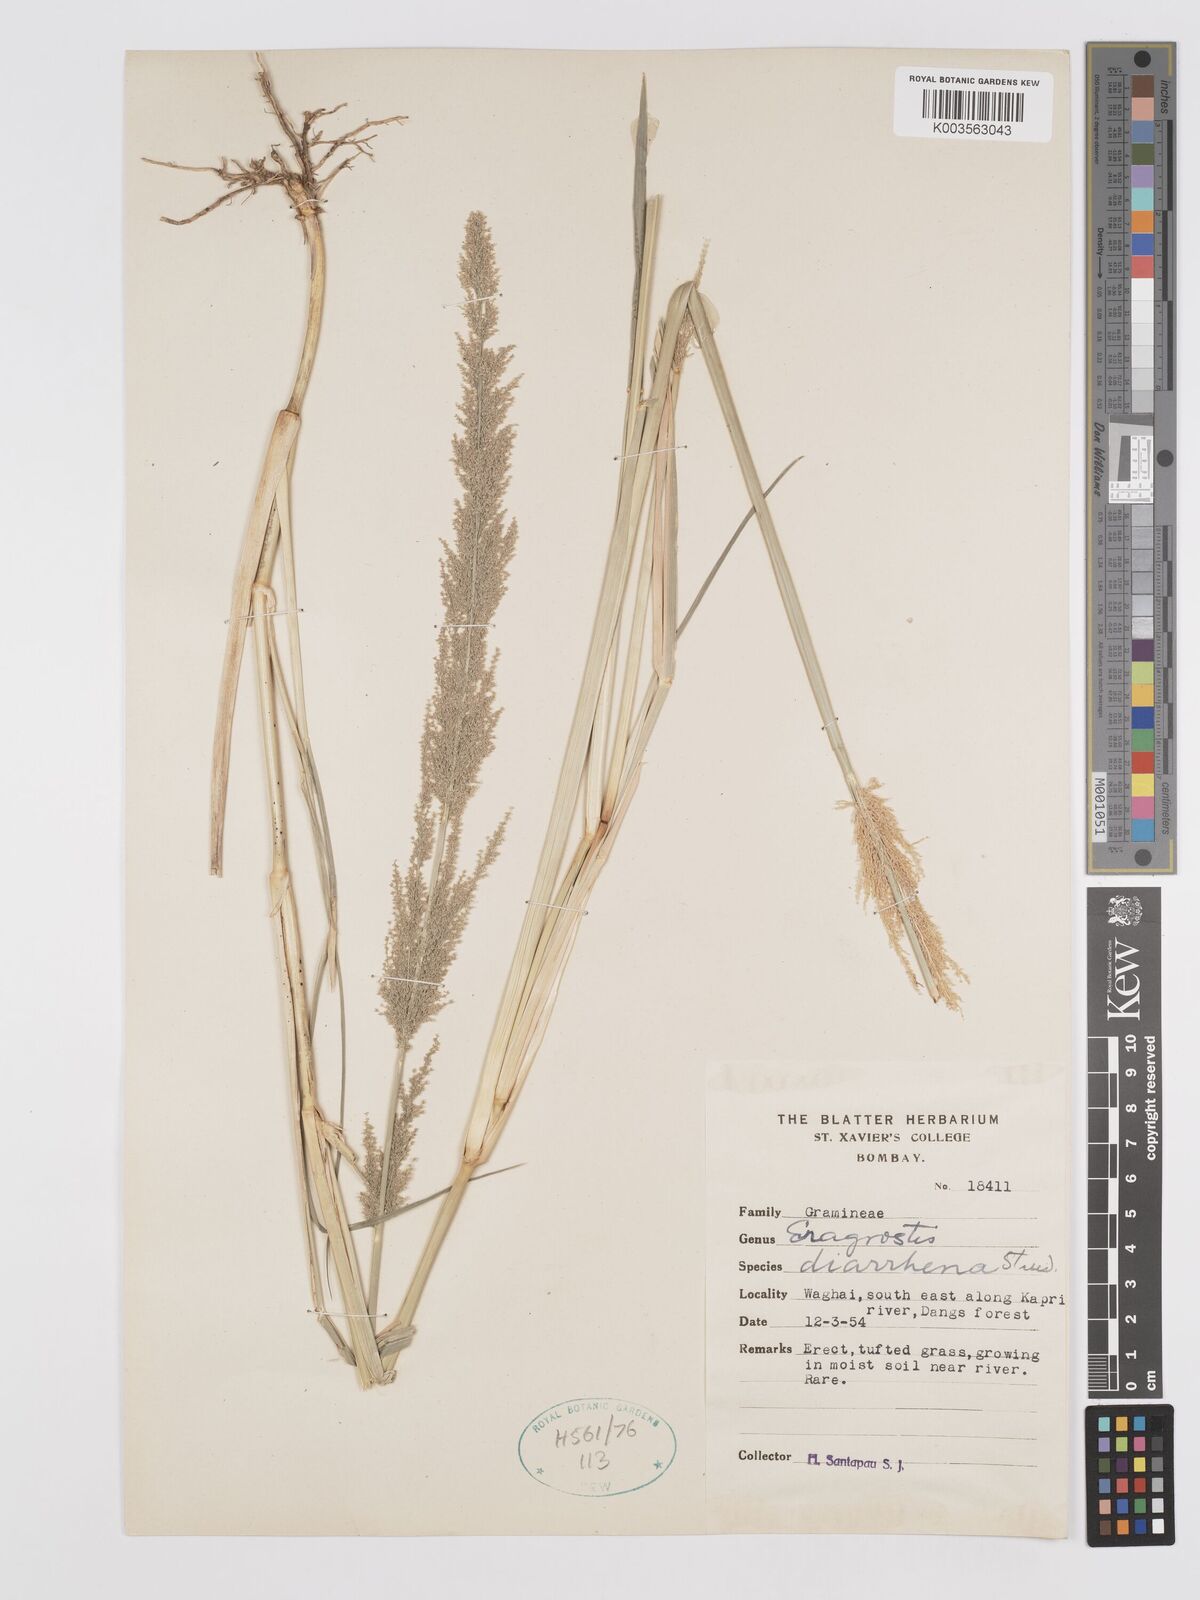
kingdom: Plantae
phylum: Tracheophyta
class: Liliopsida
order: Poales
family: Poaceae
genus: Eragrostis
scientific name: Eragrostis japonica
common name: Pond lovegrass
